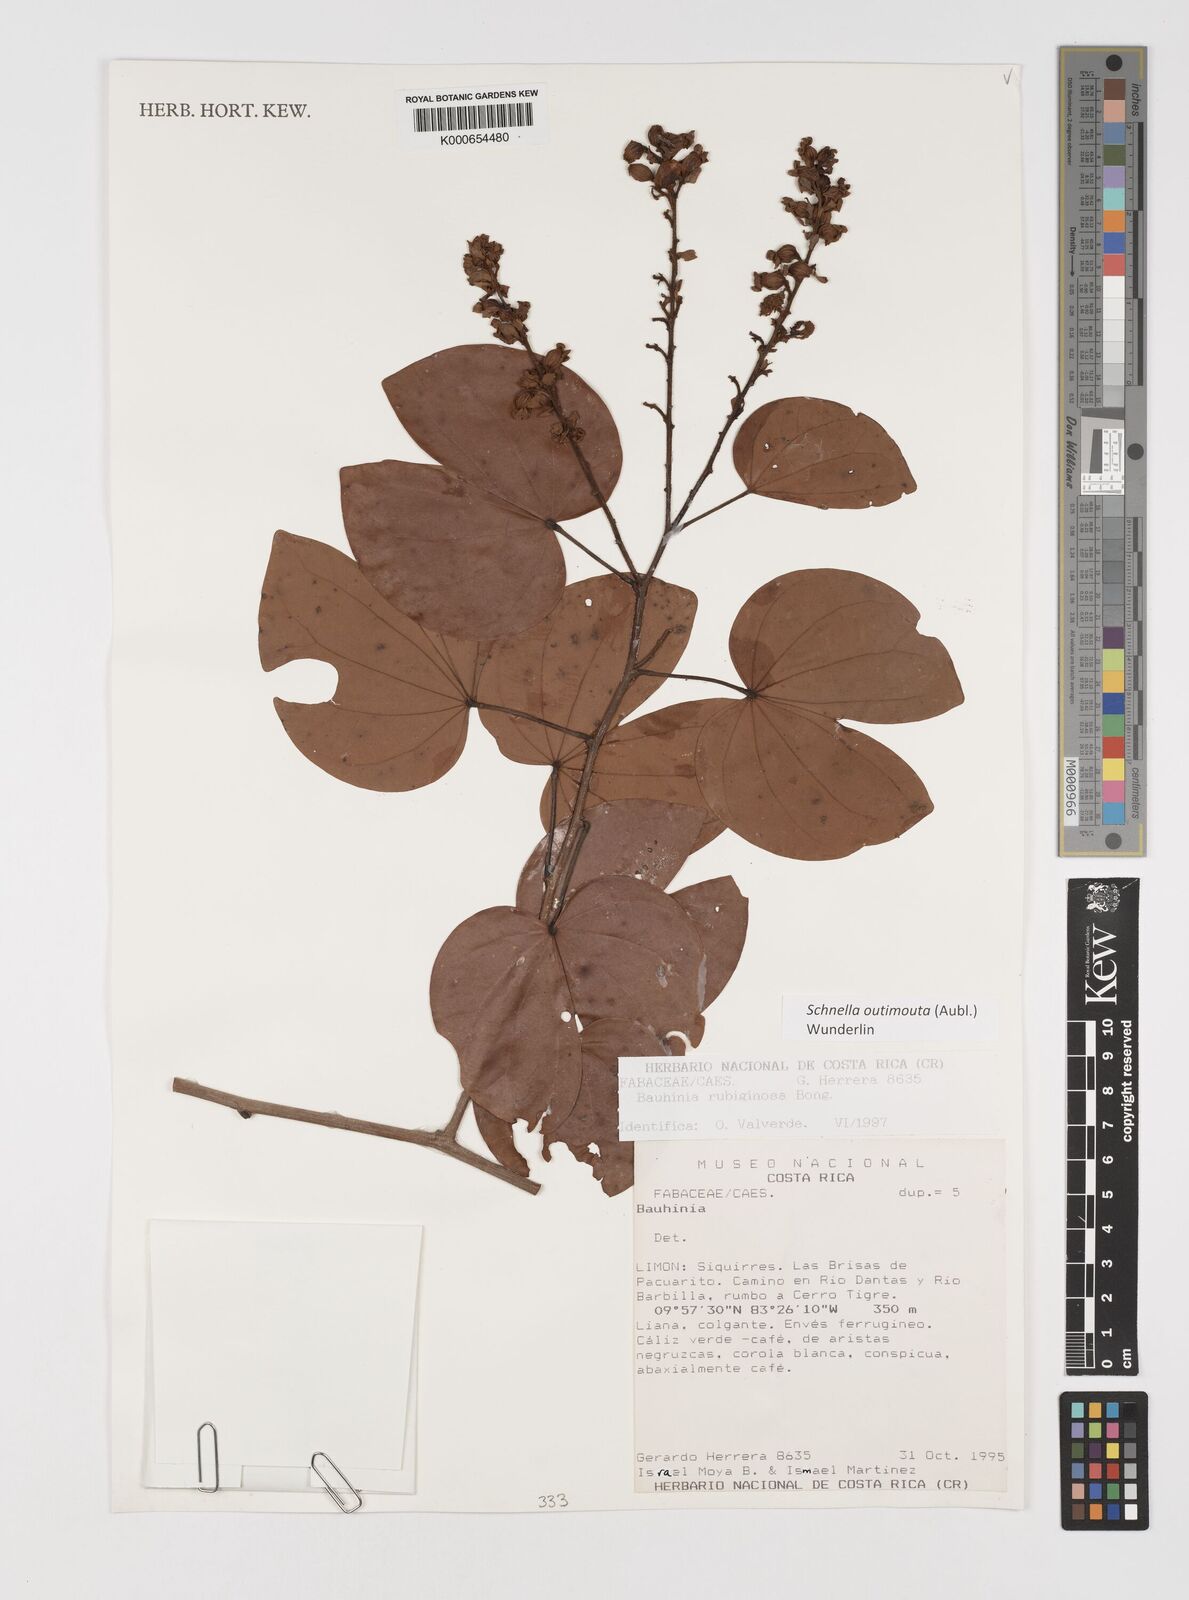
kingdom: Plantae
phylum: Tracheophyta
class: Magnoliopsida
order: Fabales
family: Fabaceae
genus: Schnella
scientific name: Schnella outimouta
